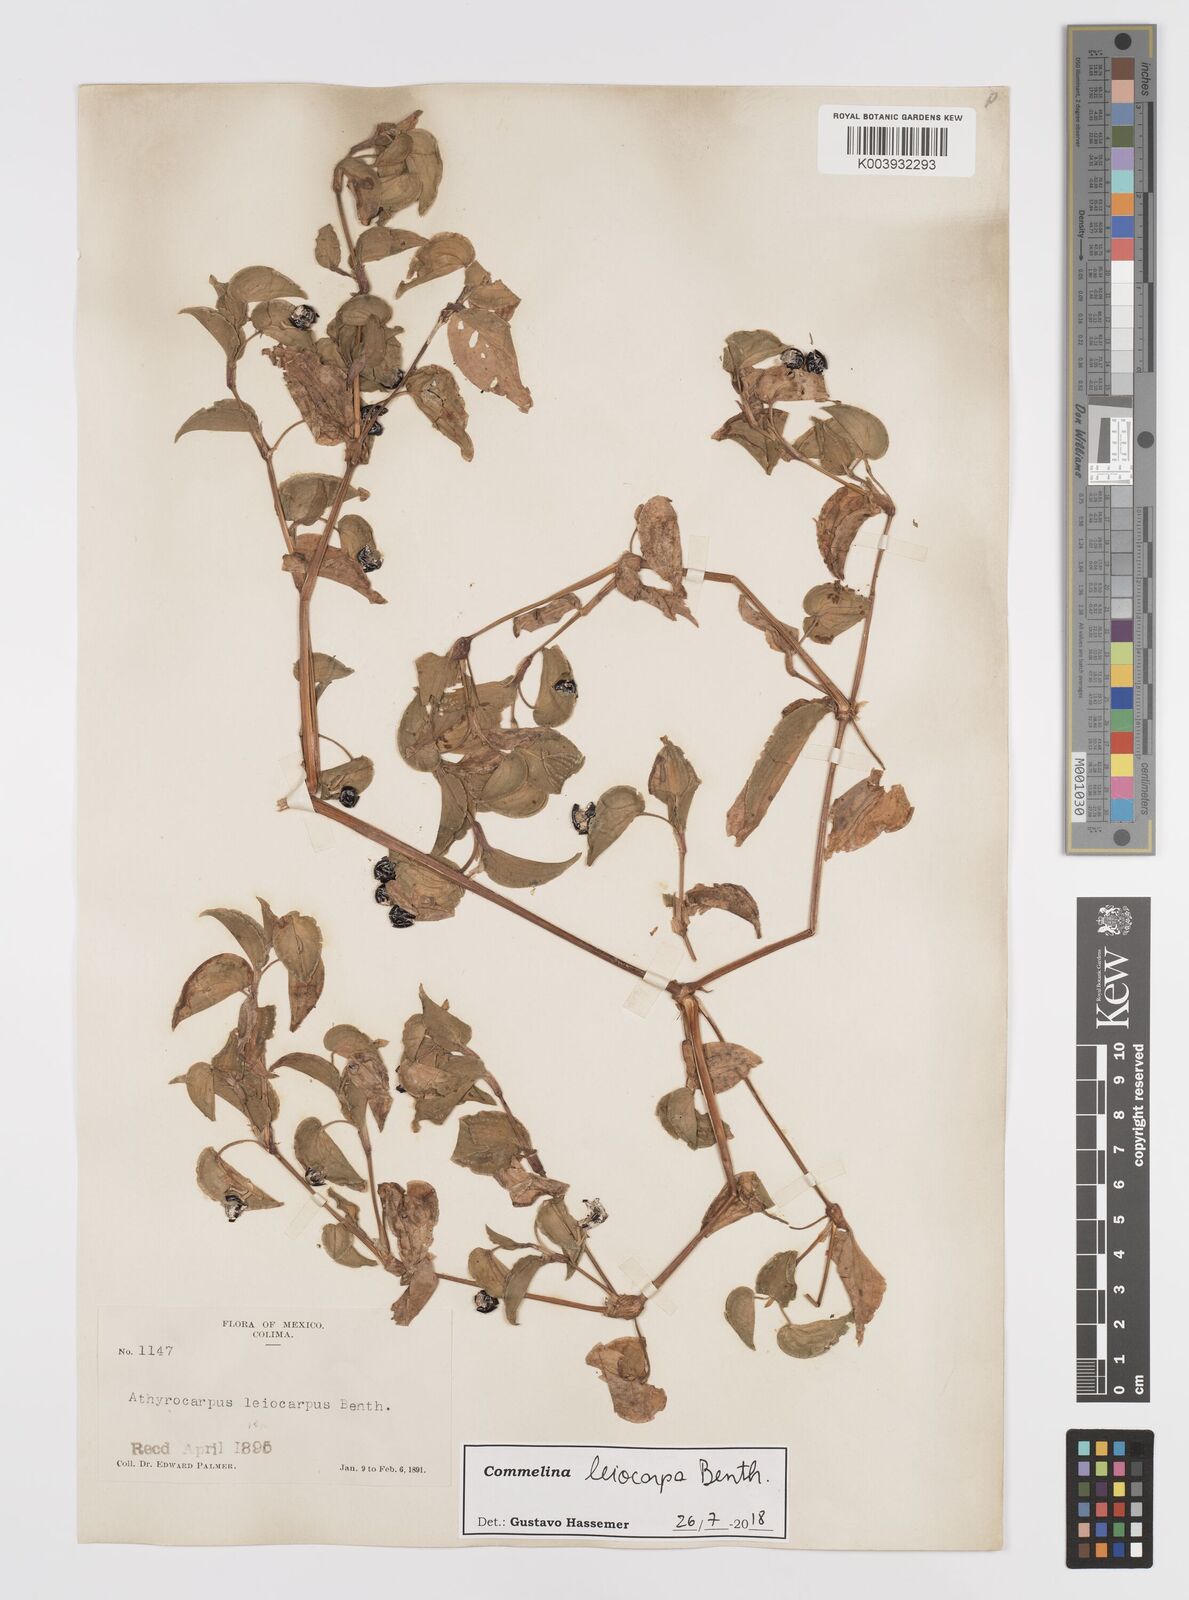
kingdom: Plantae
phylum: Tracheophyta
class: Liliopsida
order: Commelinales
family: Commelinaceae
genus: Commelina
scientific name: Commelina leiocarpa
